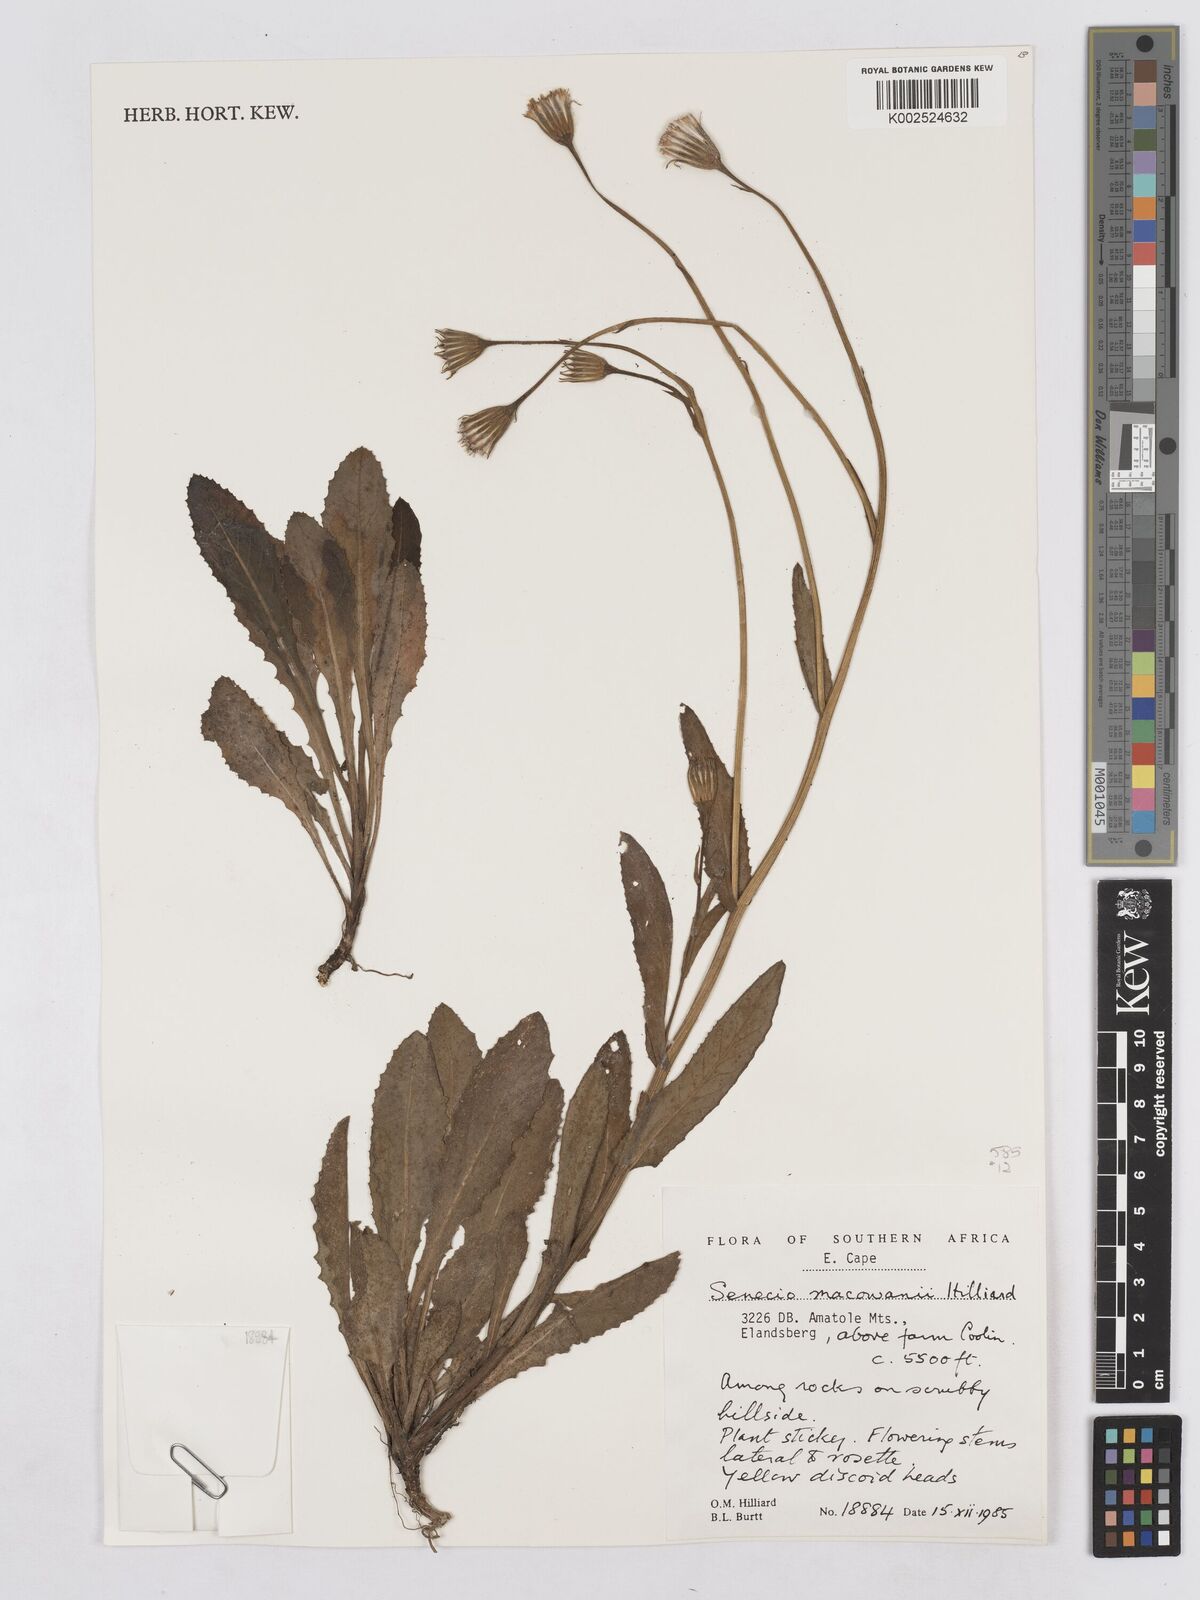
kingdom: Plantae
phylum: Tracheophyta
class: Magnoliopsida
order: Asterales
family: Asteraceae
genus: Senecio
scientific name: Senecio macowanii
